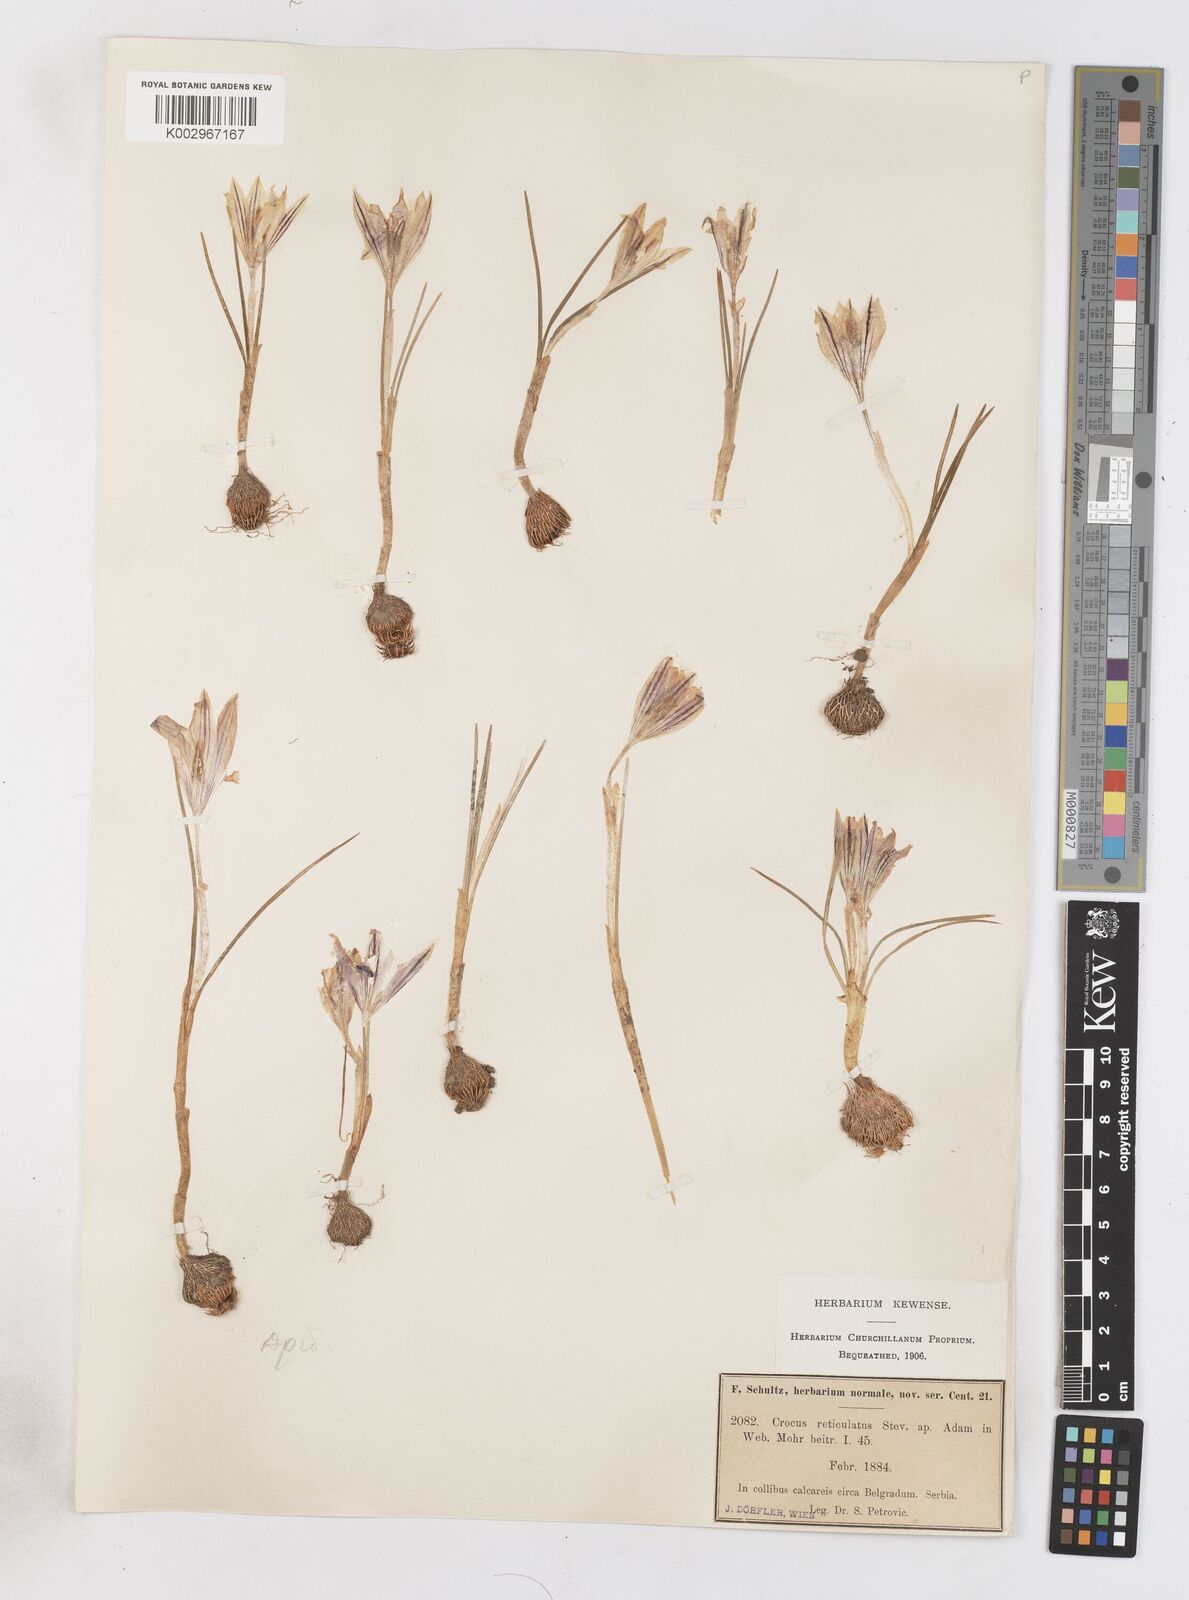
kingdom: Plantae
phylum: Tracheophyta
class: Liliopsida
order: Asparagales
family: Iridaceae
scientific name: Iridaceae
